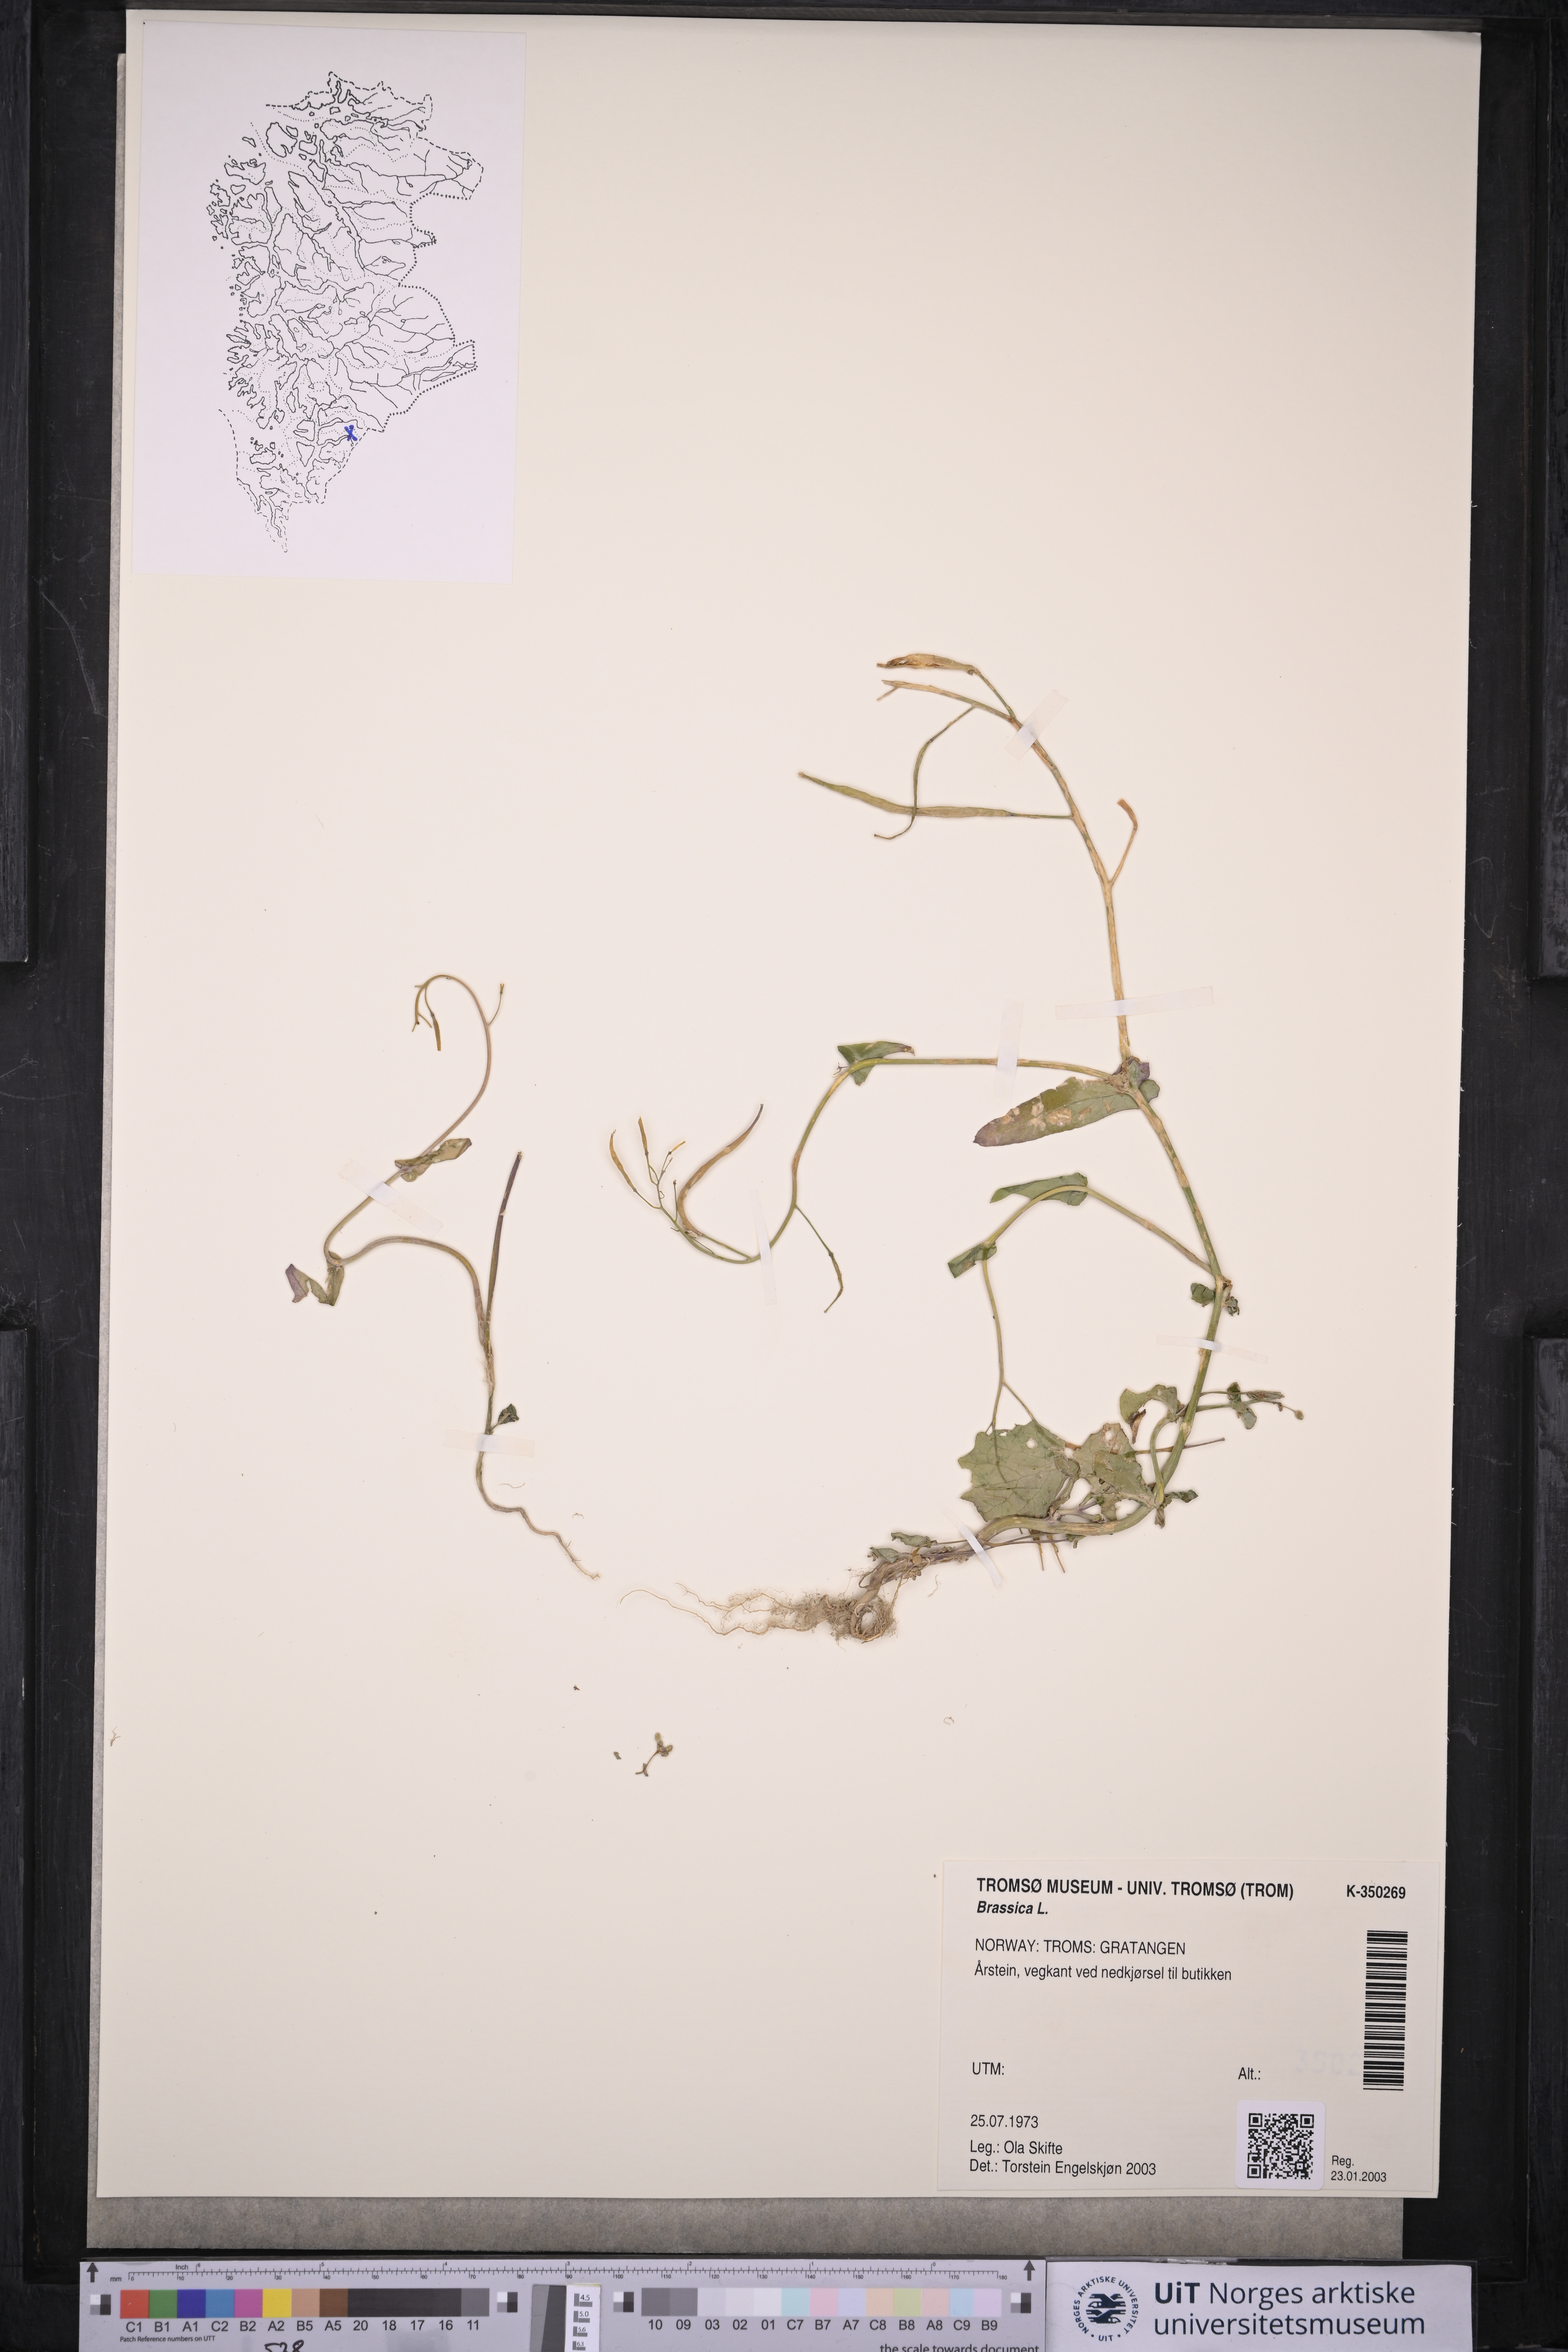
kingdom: Plantae
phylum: Tracheophyta
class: Magnoliopsida
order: Brassicales
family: Brassicaceae
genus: Brassica
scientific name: Brassica
